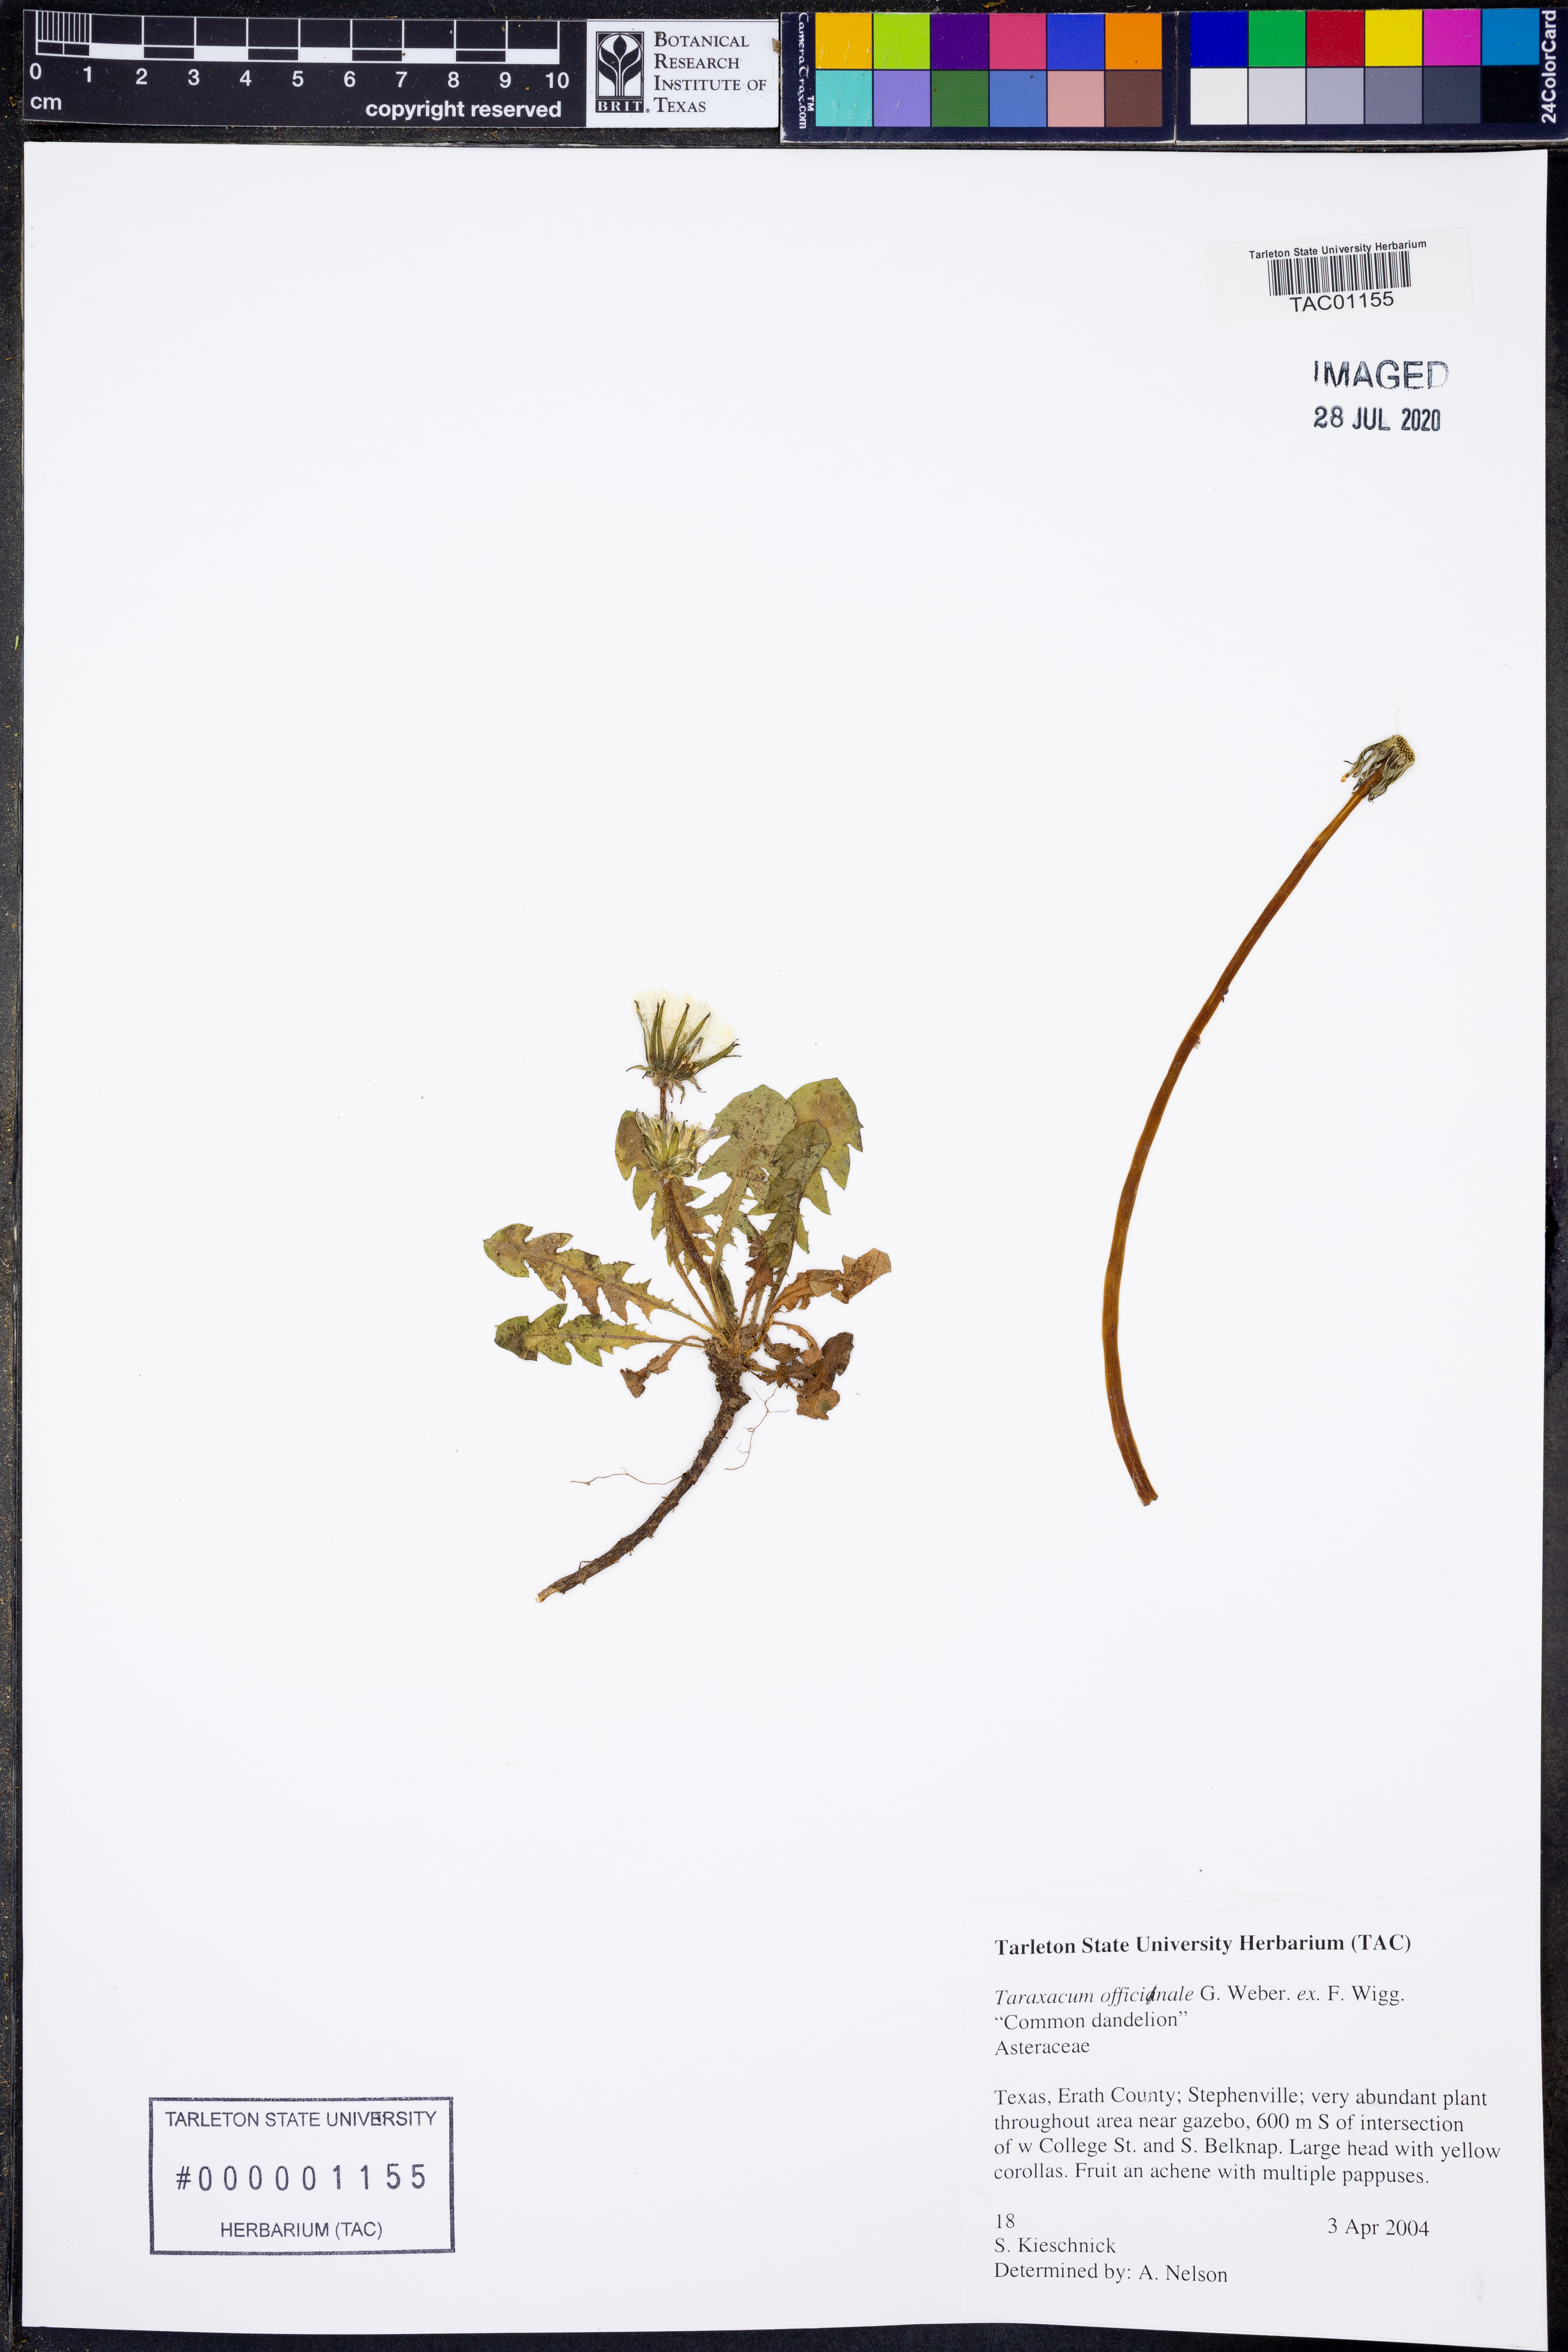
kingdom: Plantae
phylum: Tracheophyta
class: Magnoliopsida
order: Asterales
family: Asteraceae
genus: Taraxacum
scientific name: Taraxacum officinale
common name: Common dandelion
